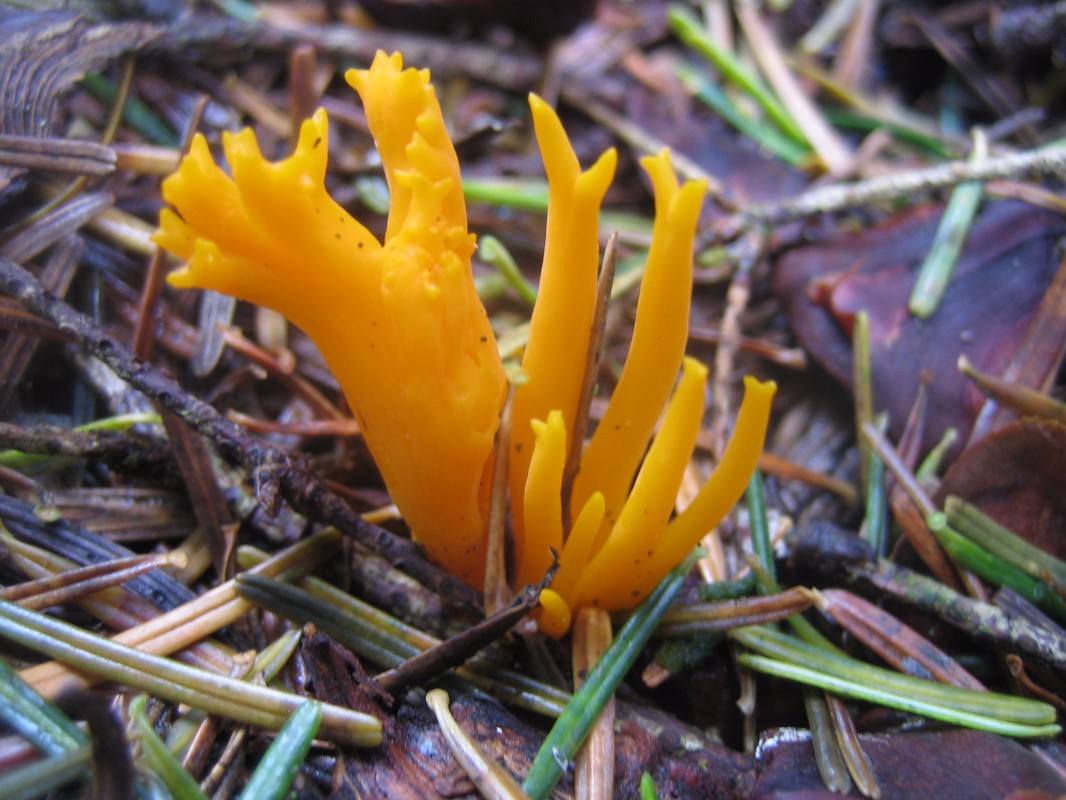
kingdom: Fungi
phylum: Basidiomycota
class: Dacrymycetes
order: Dacrymycetales
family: Dacrymycetaceae
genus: Calocera
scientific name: Calocera viscosa
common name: almindelig guldgaffel
